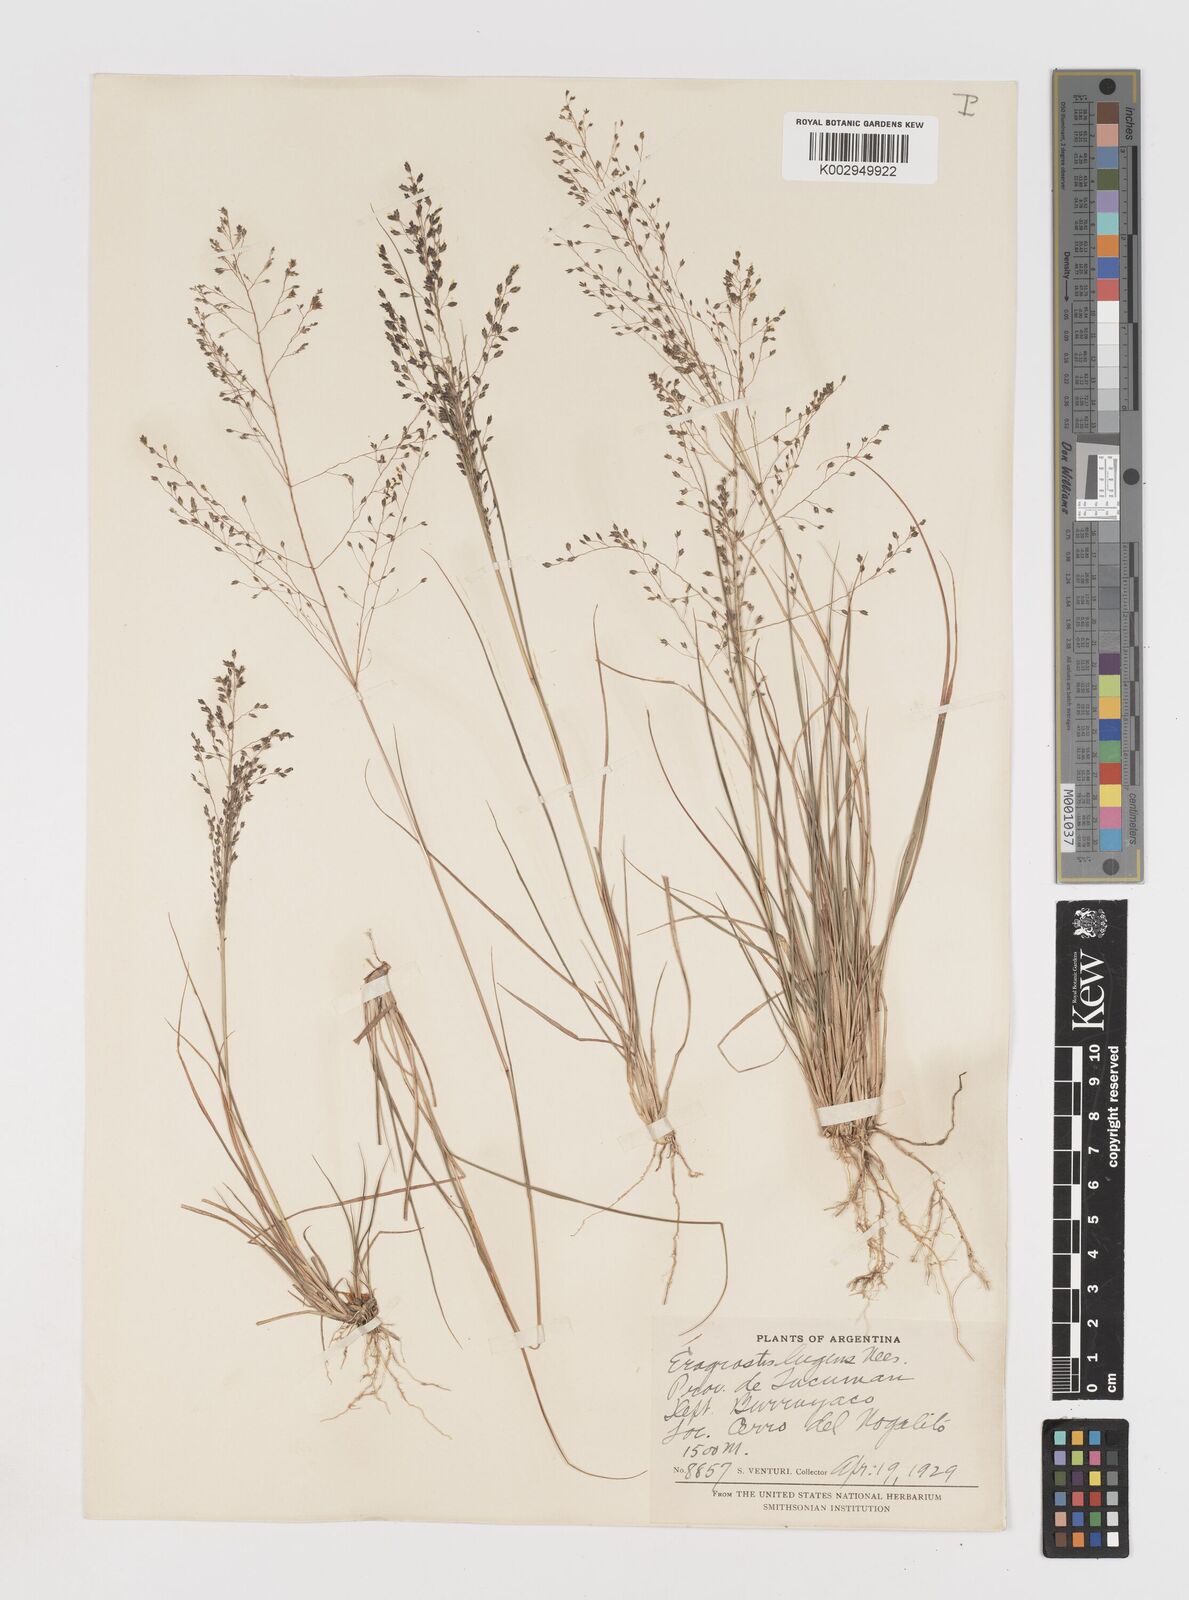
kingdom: Plantae
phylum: Tracheophyta
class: Liliopsida
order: Poales
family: Poaceae
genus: Eragrostis
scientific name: Eragrostis lugens
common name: Mourning love grass
